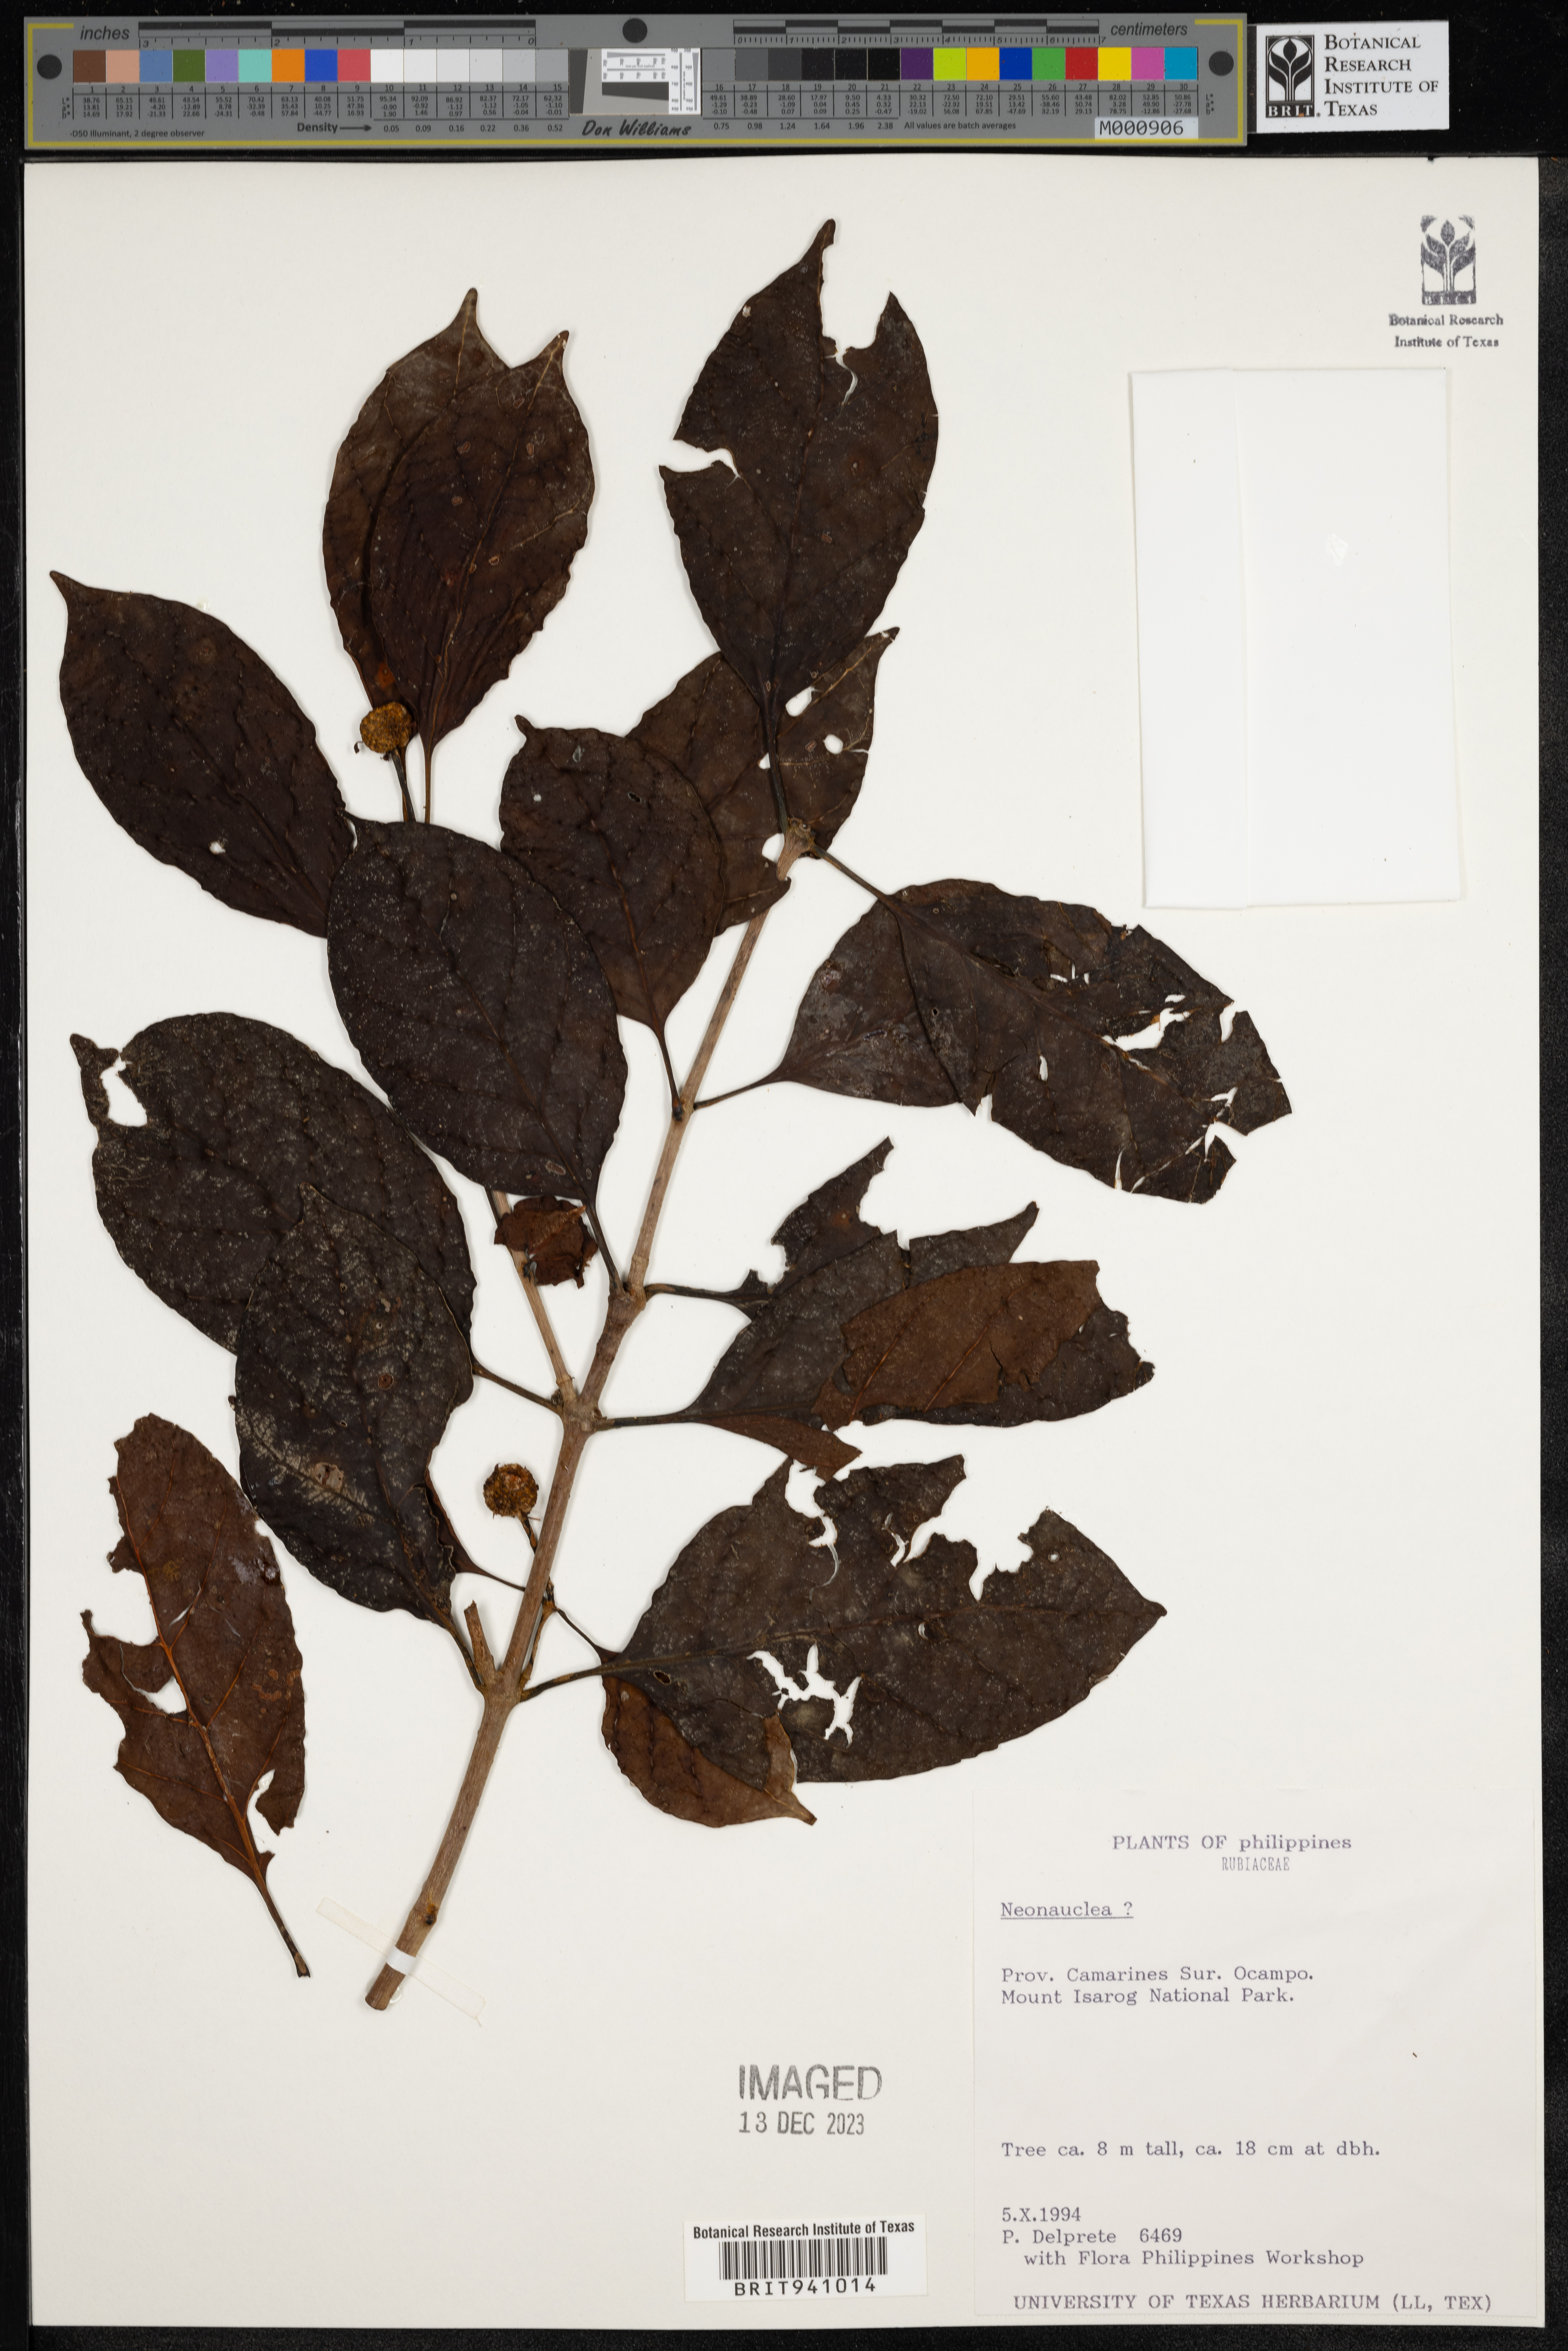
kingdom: Plantae
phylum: Tracheophyta
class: Magnoliopsida
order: Gentianales
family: Rubiaceae
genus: Neonauclea
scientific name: Neonauclea
